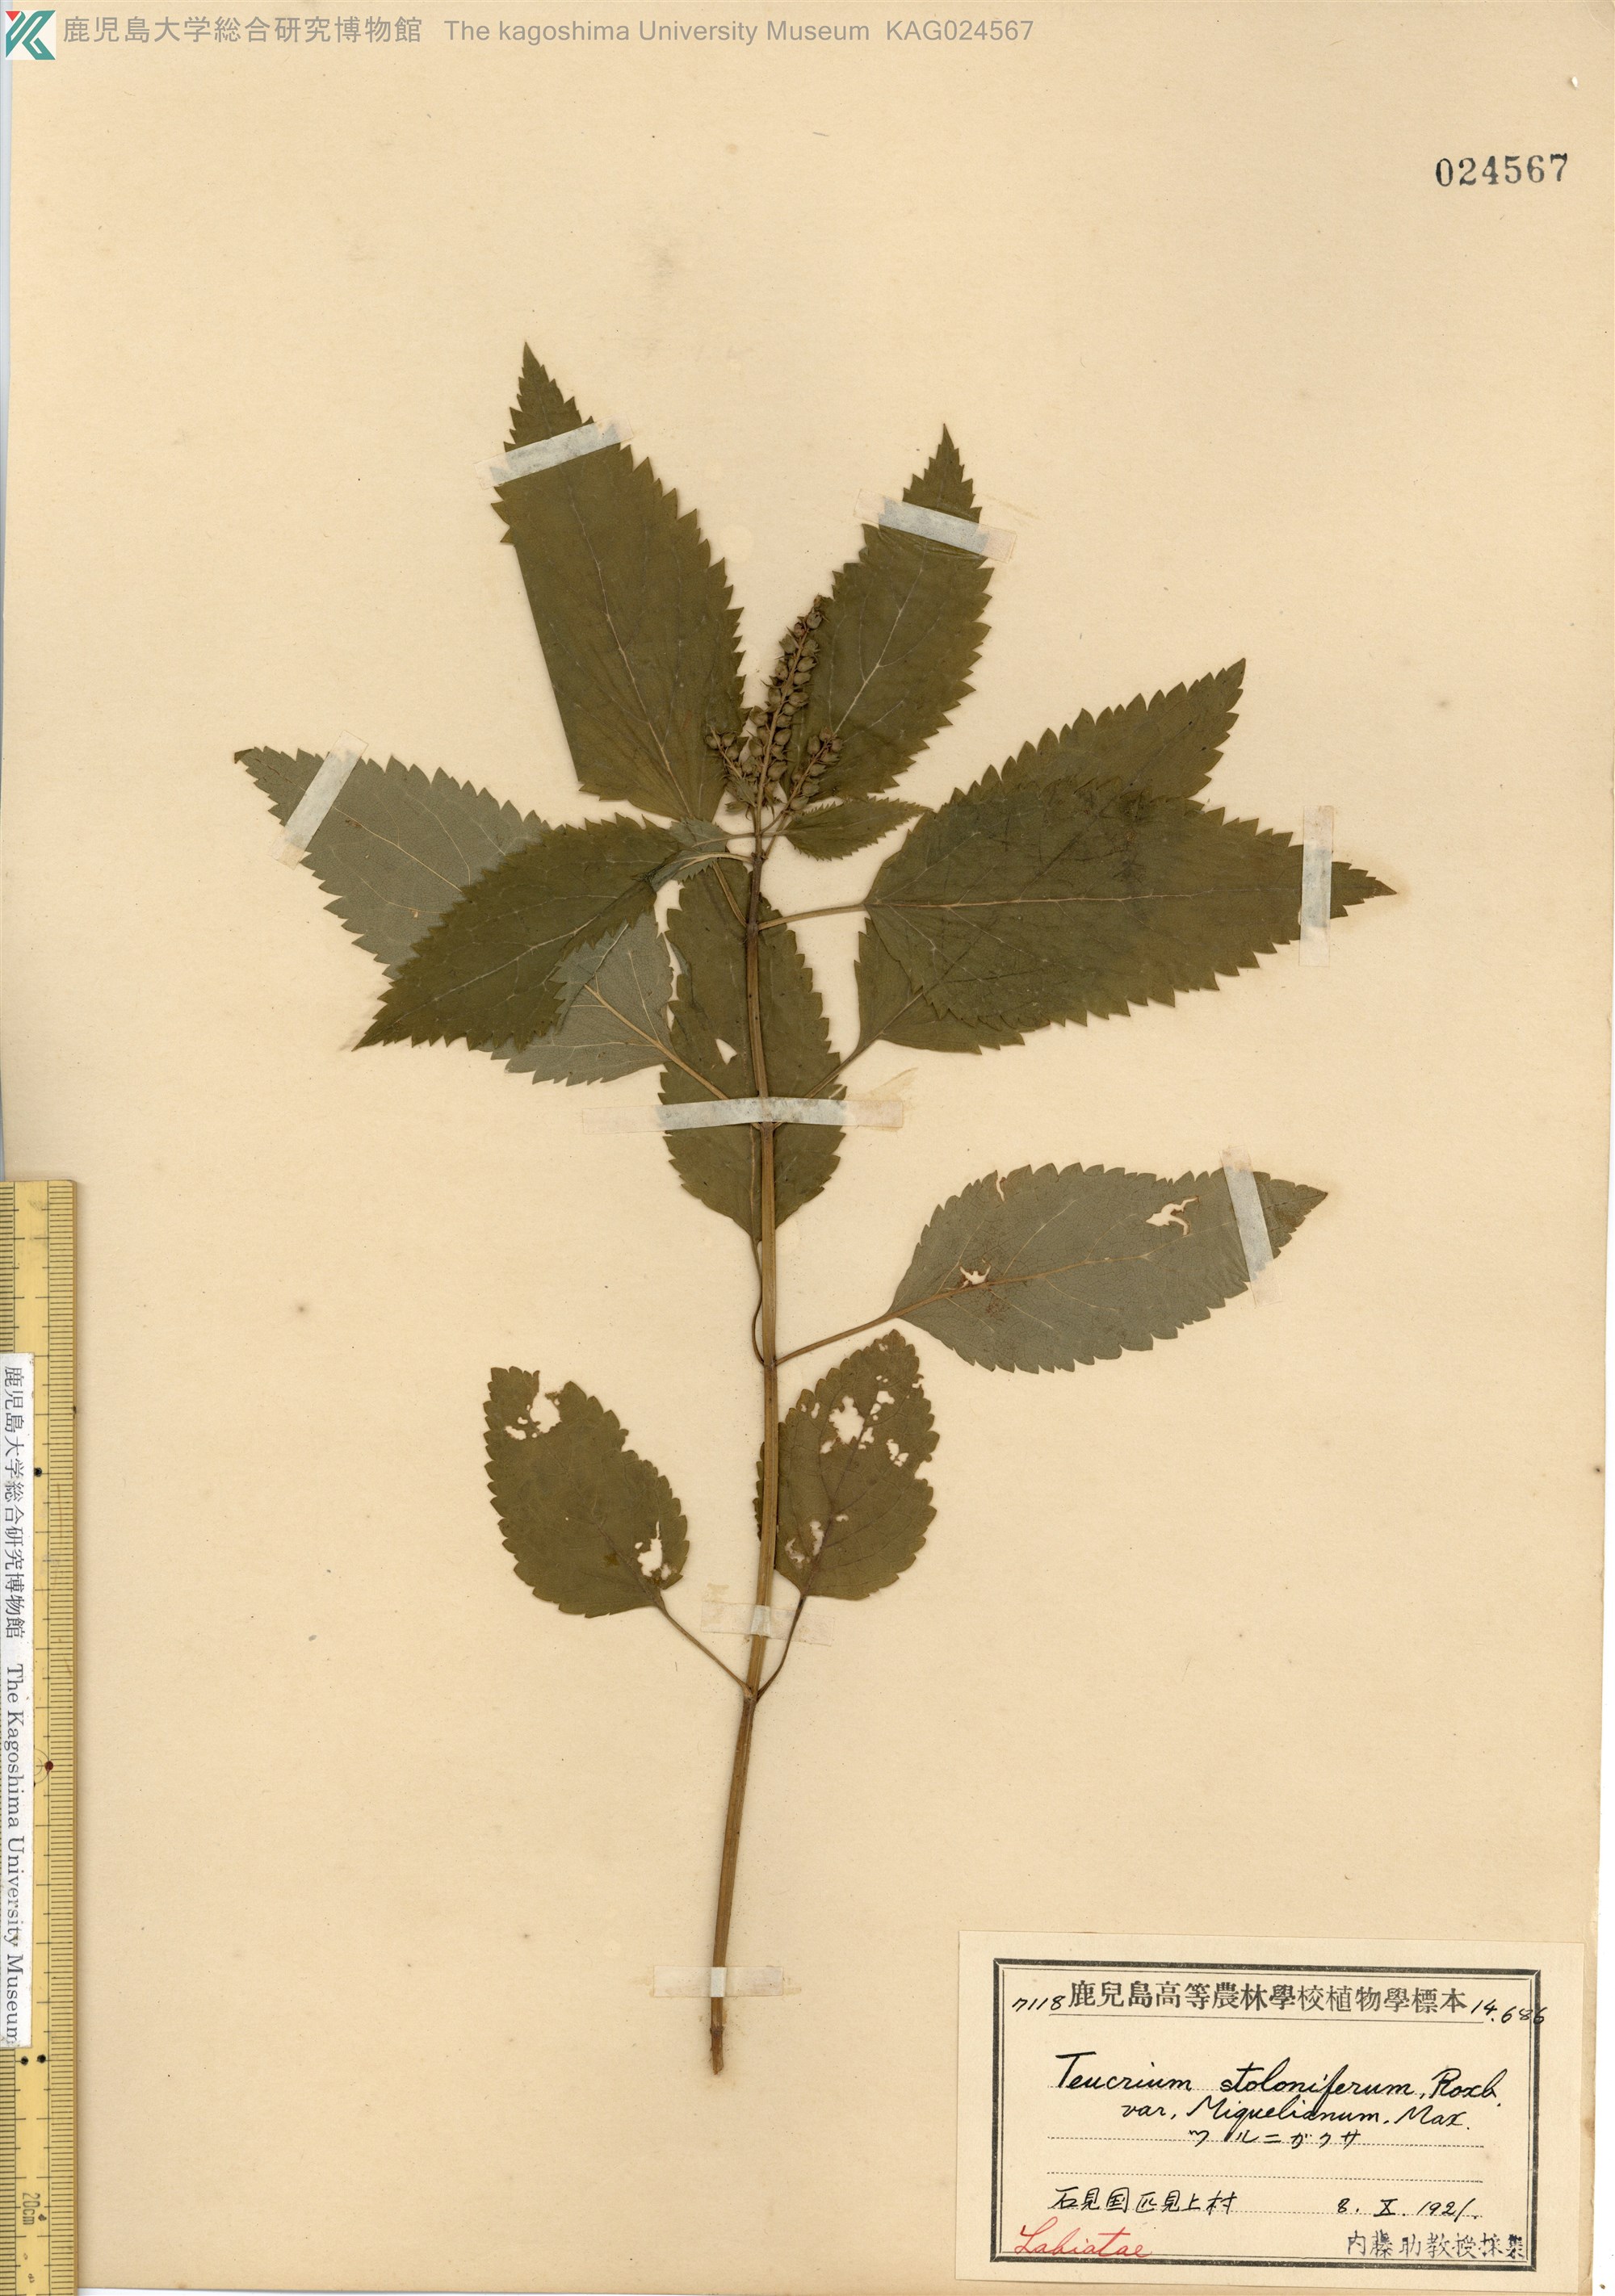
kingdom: Plantae
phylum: Tracheophyta
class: Magnoliopsida
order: Lamiales
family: Lamiaceae
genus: Teucrium
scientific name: Teucrium viscidum
